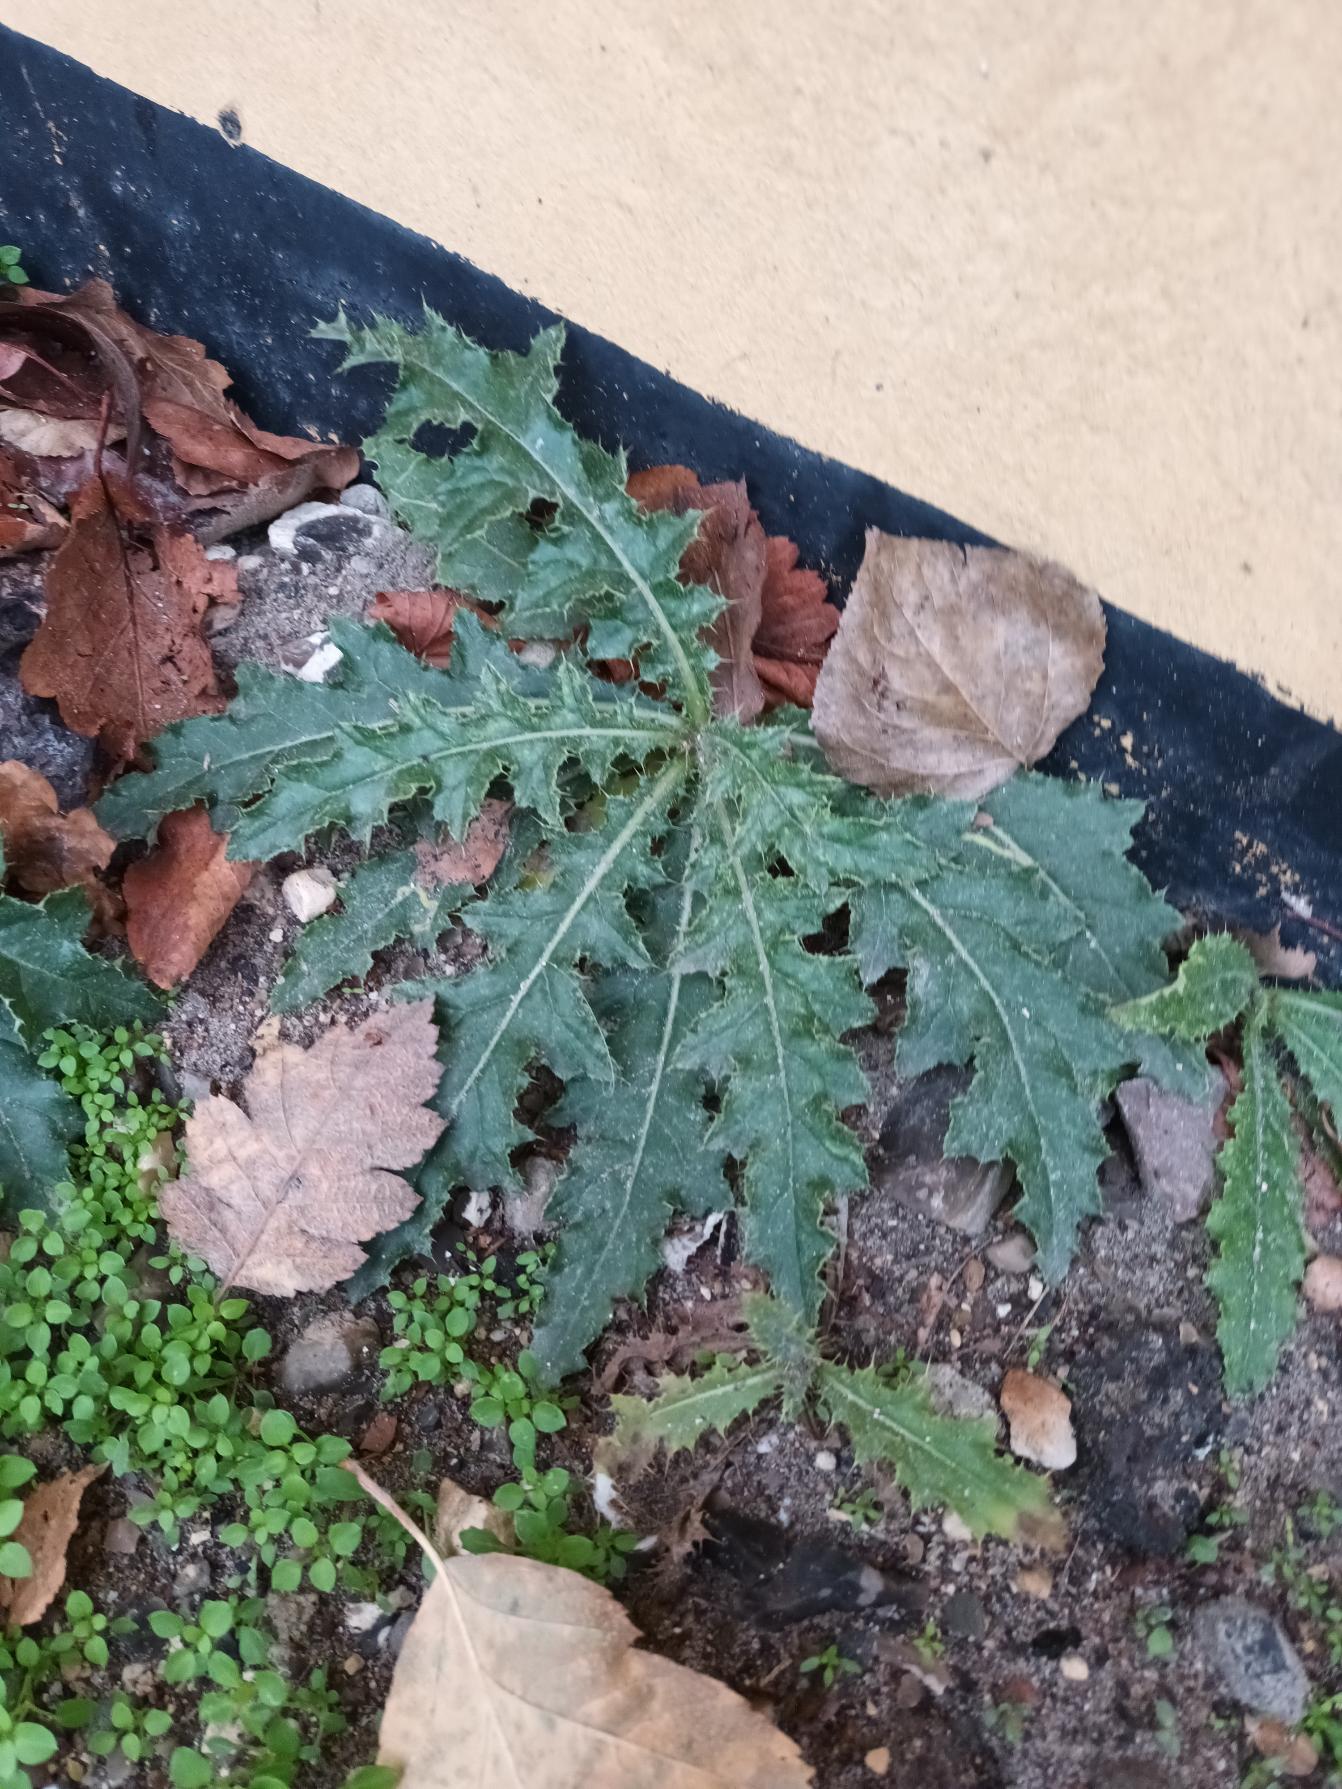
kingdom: Plantae
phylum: Tracheophyta
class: Magnoliopsida
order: Asterales
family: Asteraceae
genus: Cirsium
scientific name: Cirsium arvense
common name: Ager-tidsel
